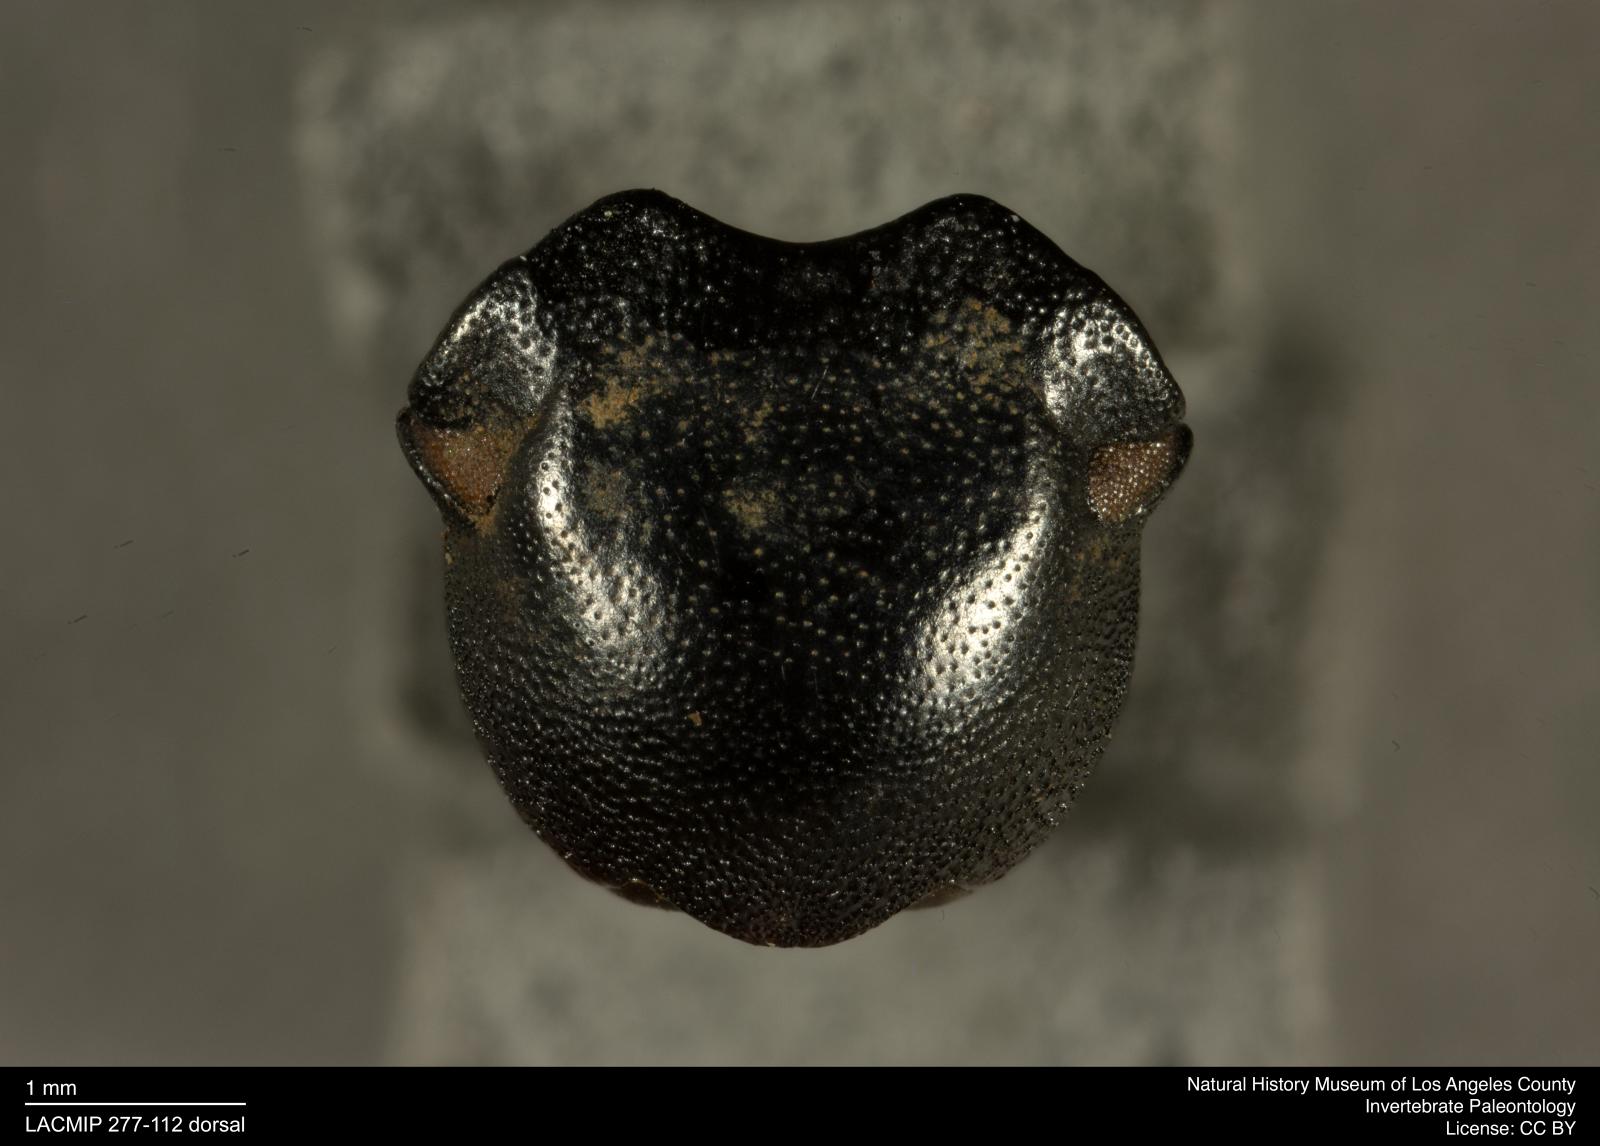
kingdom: Animalia
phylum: Arthropoda
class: Insecta
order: Coleoptera
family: Tenebrionidae
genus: Coniontis
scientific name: Coniontis abdominalis
